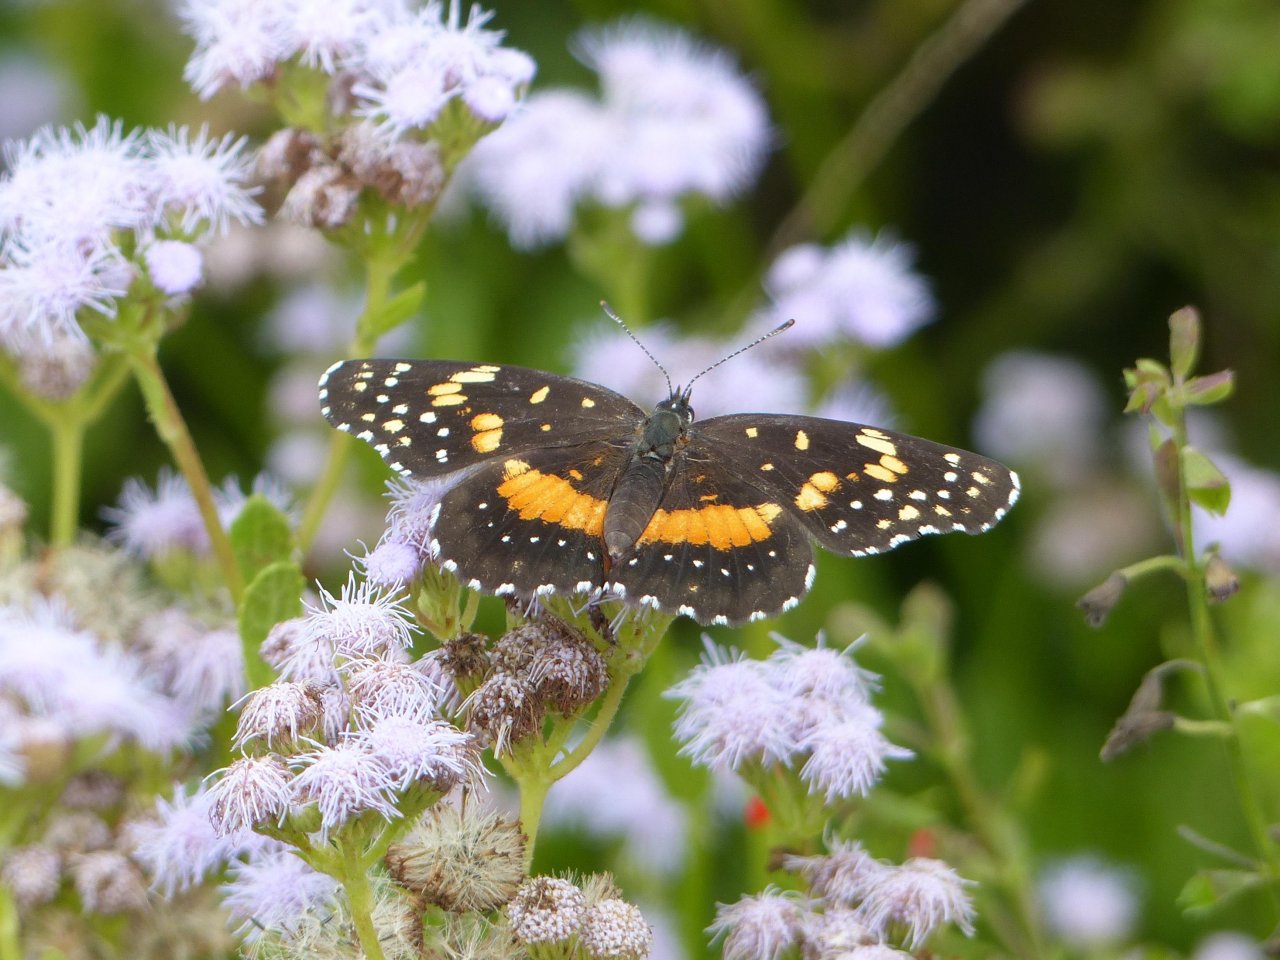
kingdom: Animalia
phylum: Arthropoda
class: Insecta
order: Lepidoptera
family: Nymphalidae
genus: Chlosyne
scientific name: Chlosyne lacinia
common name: Bordered Patch
